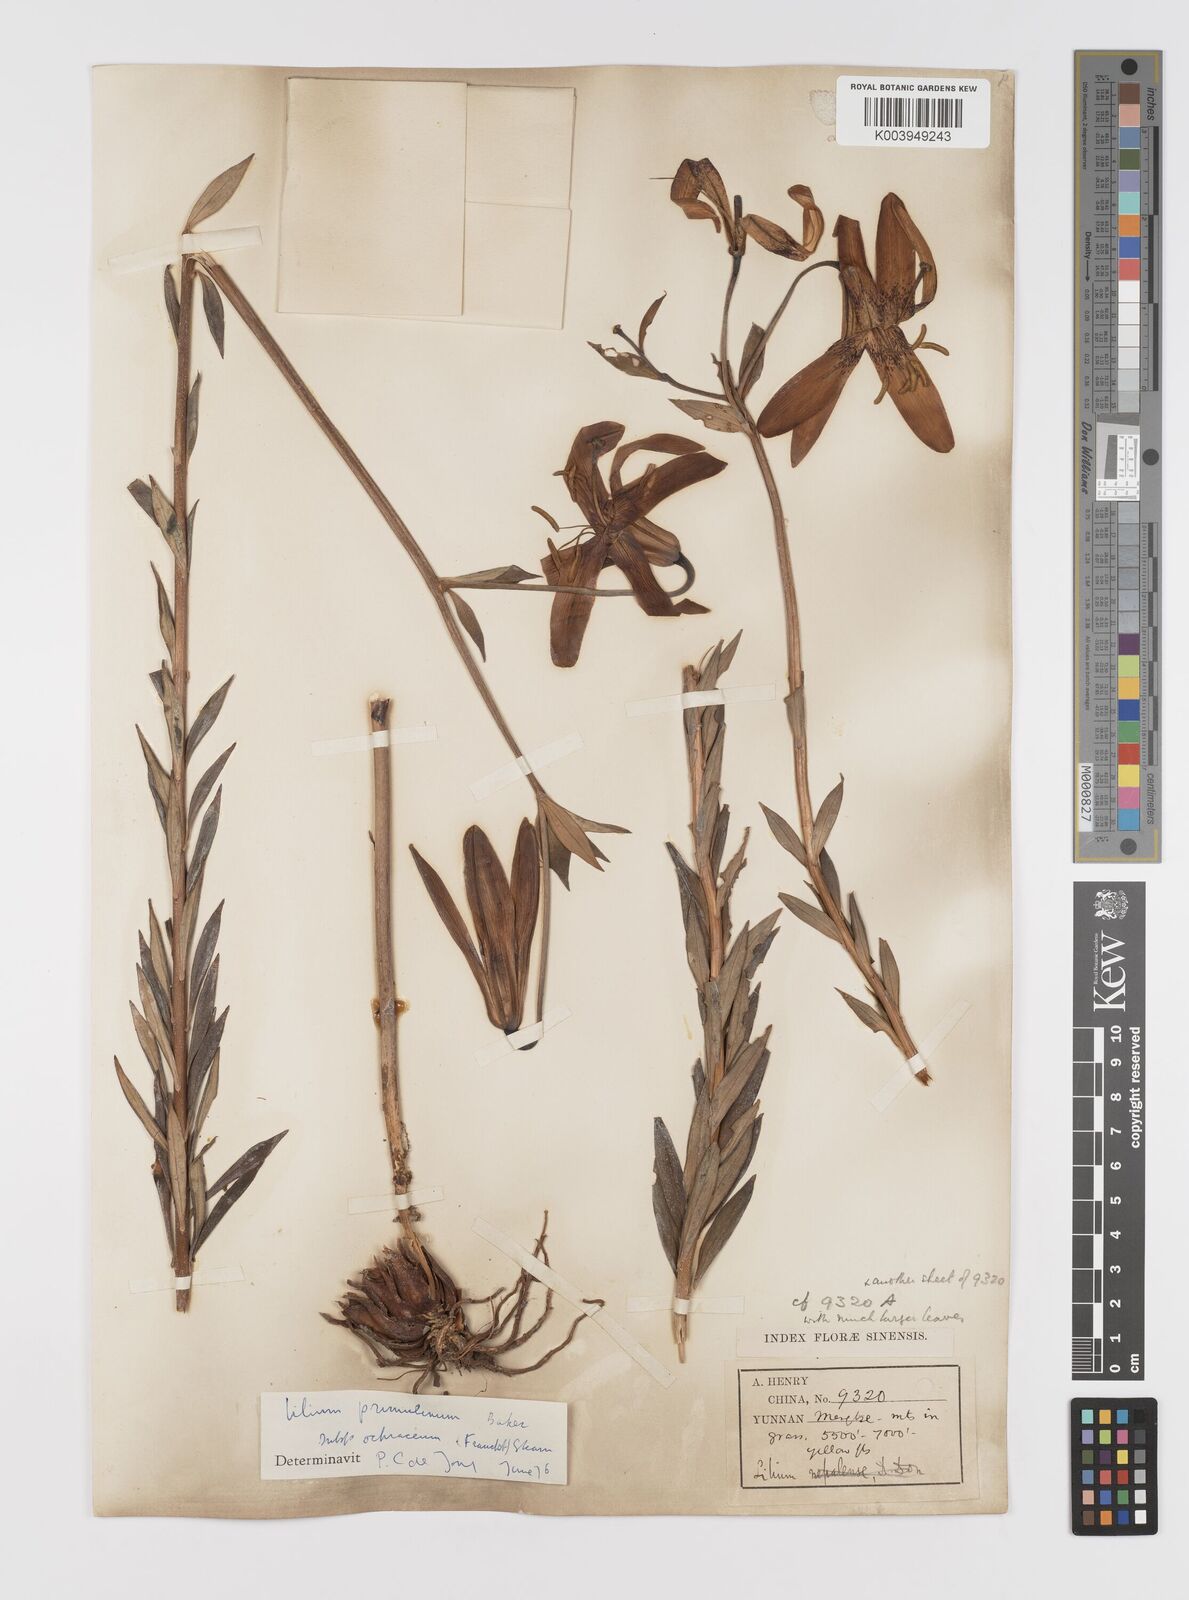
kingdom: Plantae
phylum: Tracheophyta
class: Liliopsida
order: Liliales
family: Liliaceae
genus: Lilium
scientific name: Lilium primulinum
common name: Ochre lily
